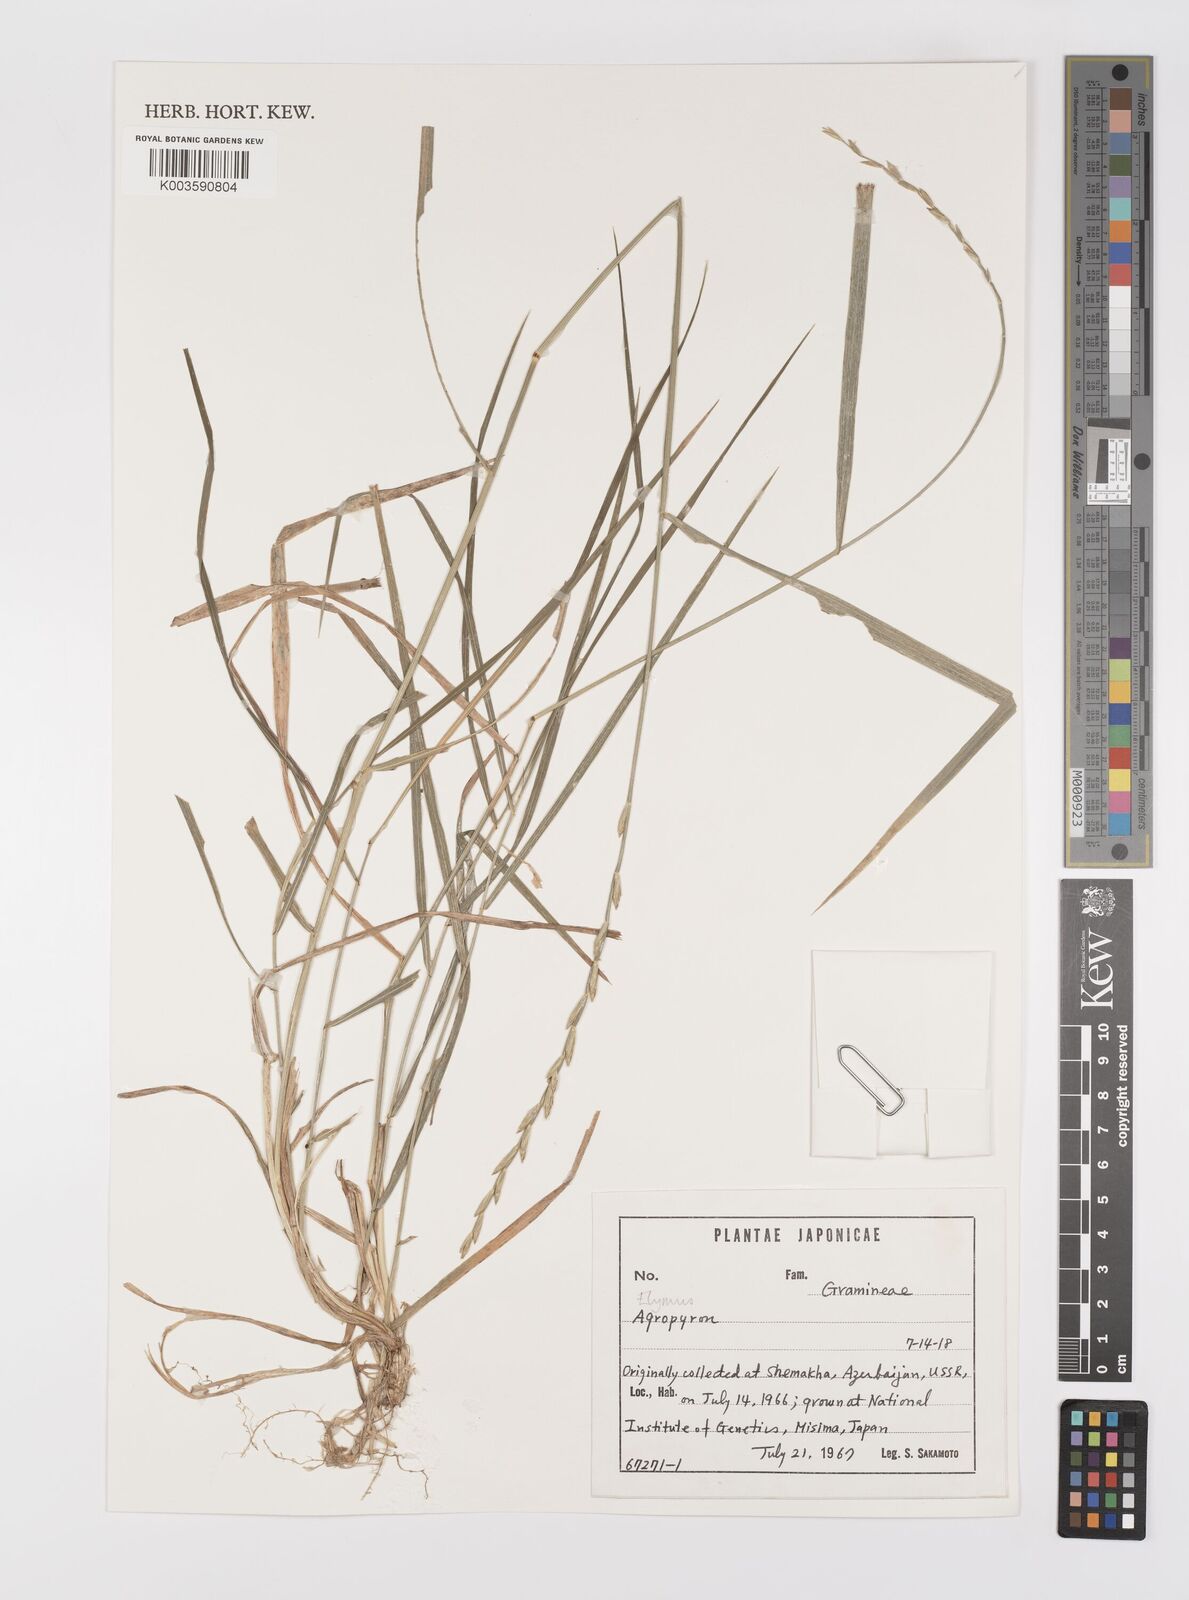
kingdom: Plantae
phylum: Tracheophyta
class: Liliopsida
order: Poales
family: Poaceae
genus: Elymus
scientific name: Elymus
